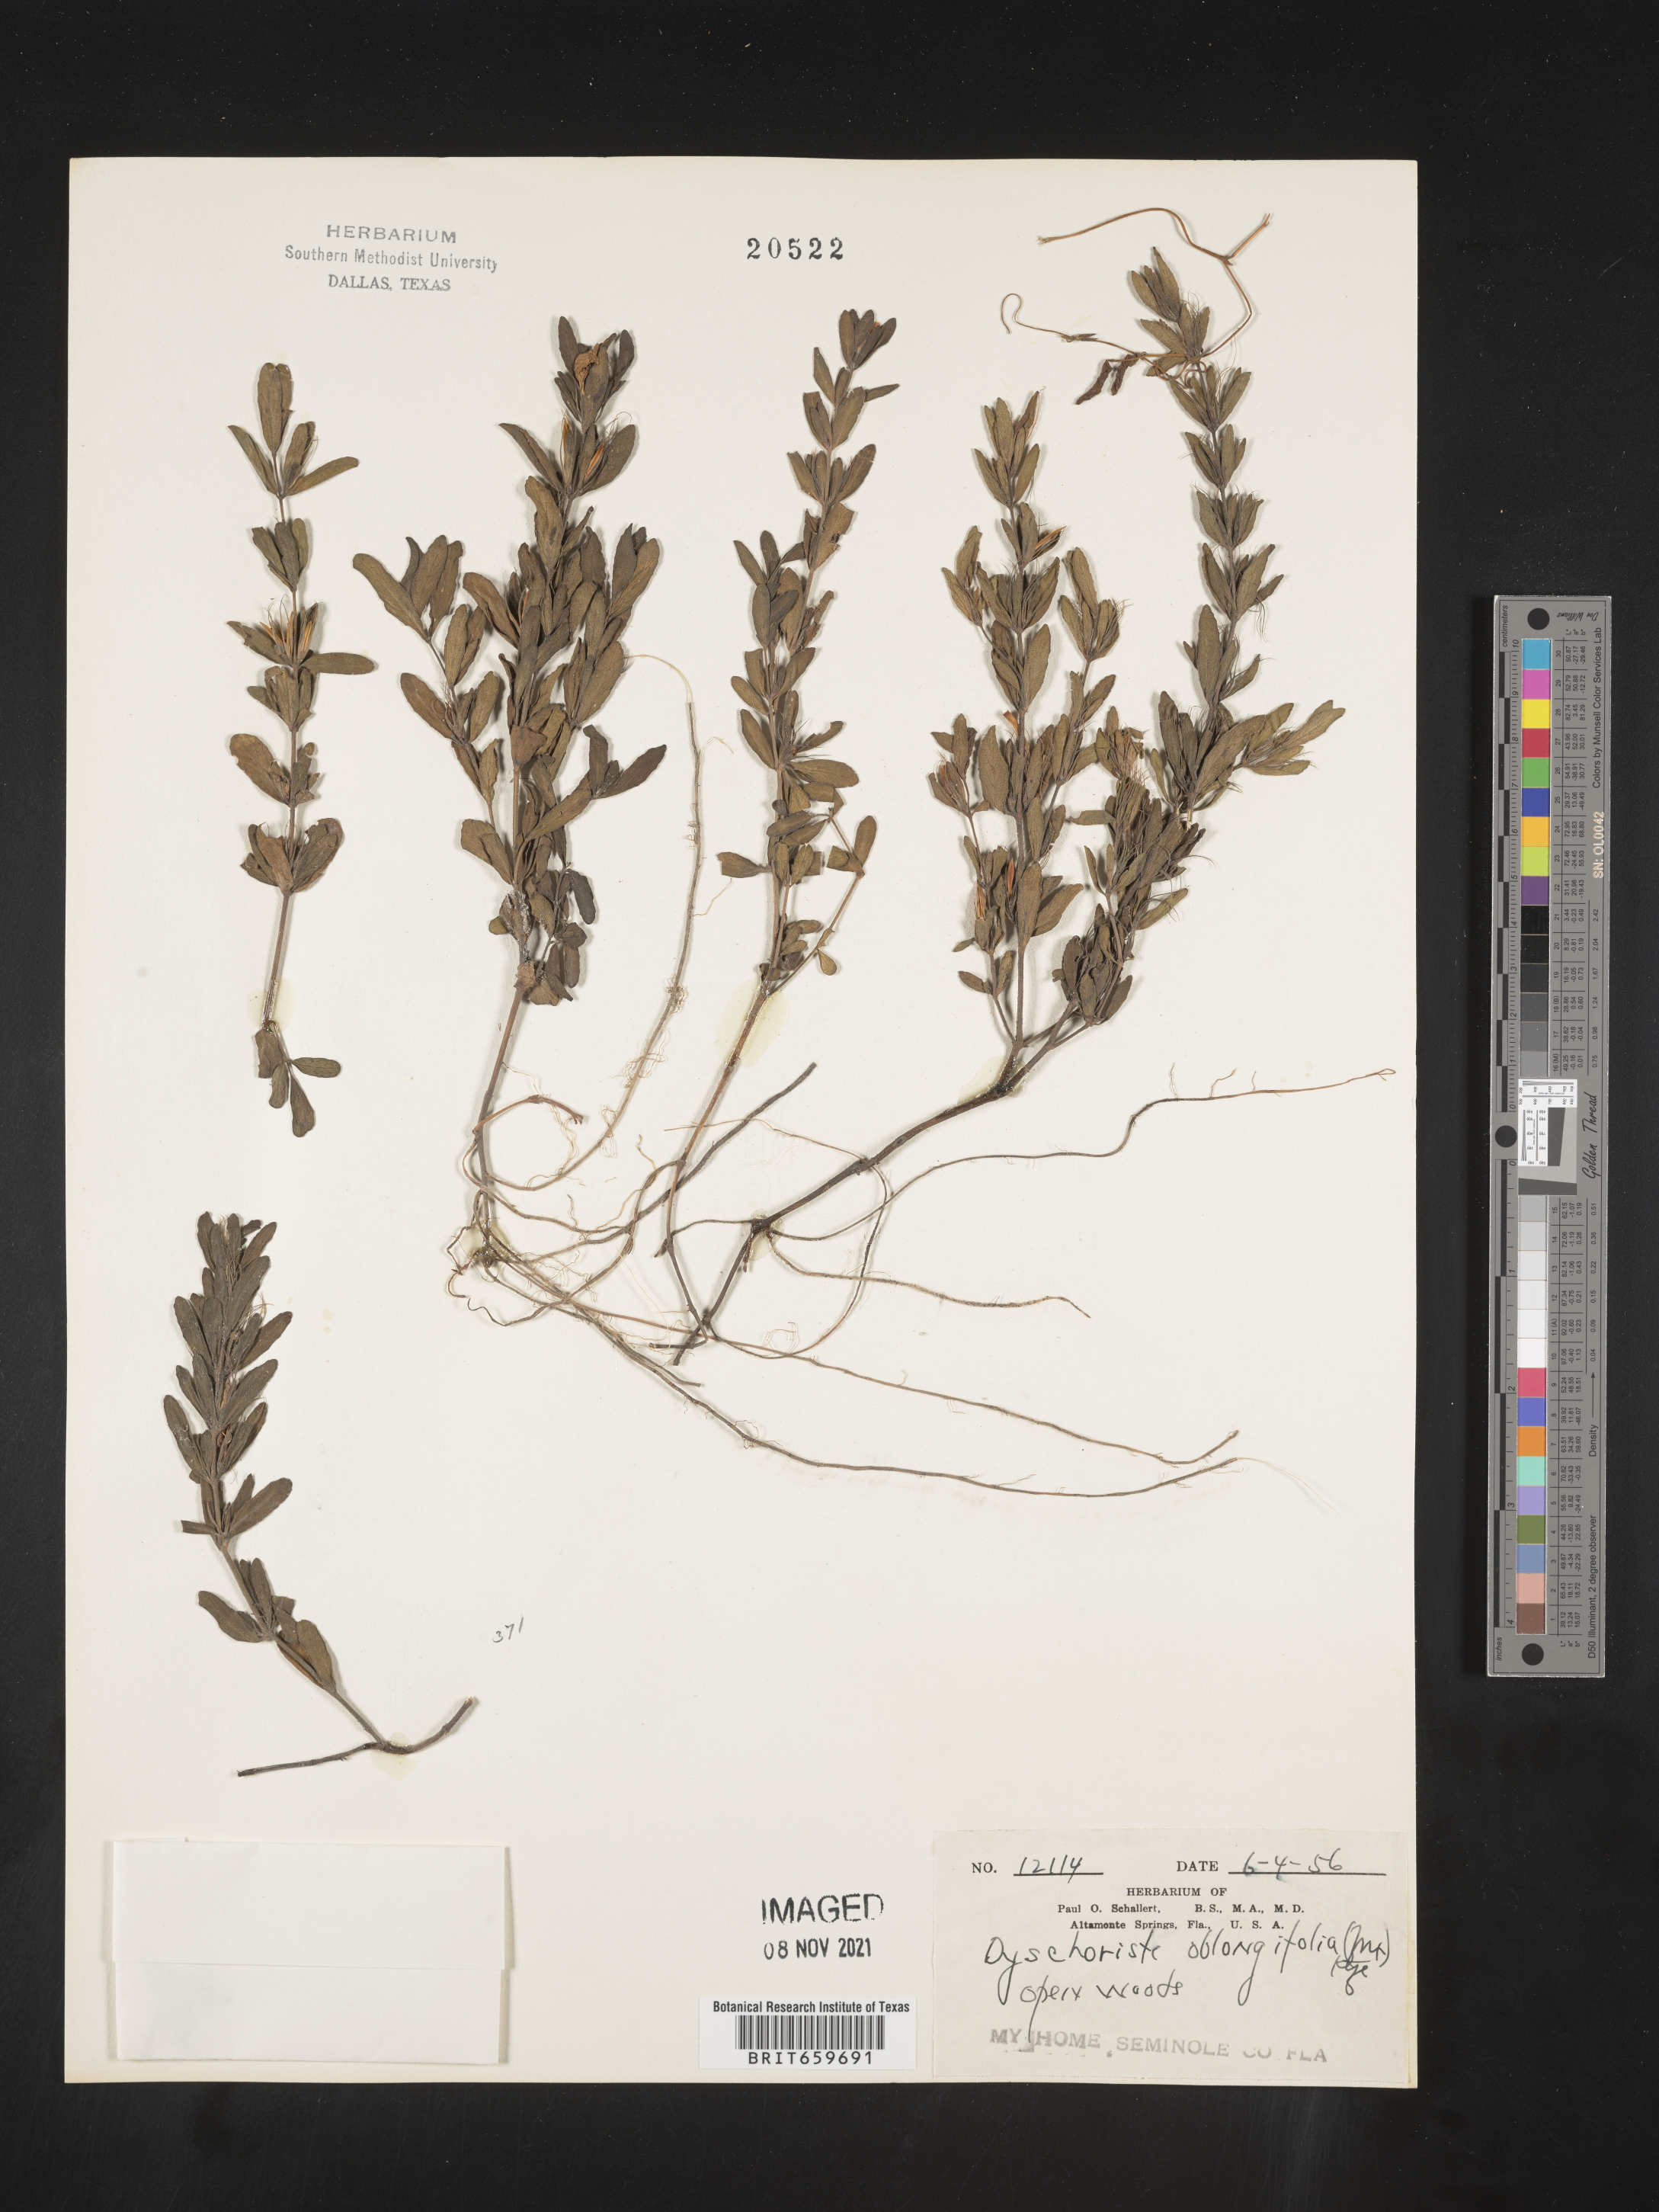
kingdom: Plantae
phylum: Tracheophyta
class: Magnoliopsida
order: Lamiales
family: Acanthaceae
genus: Dyschoriste
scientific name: Dyschoriste oblongifolia
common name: Blue twinflower
